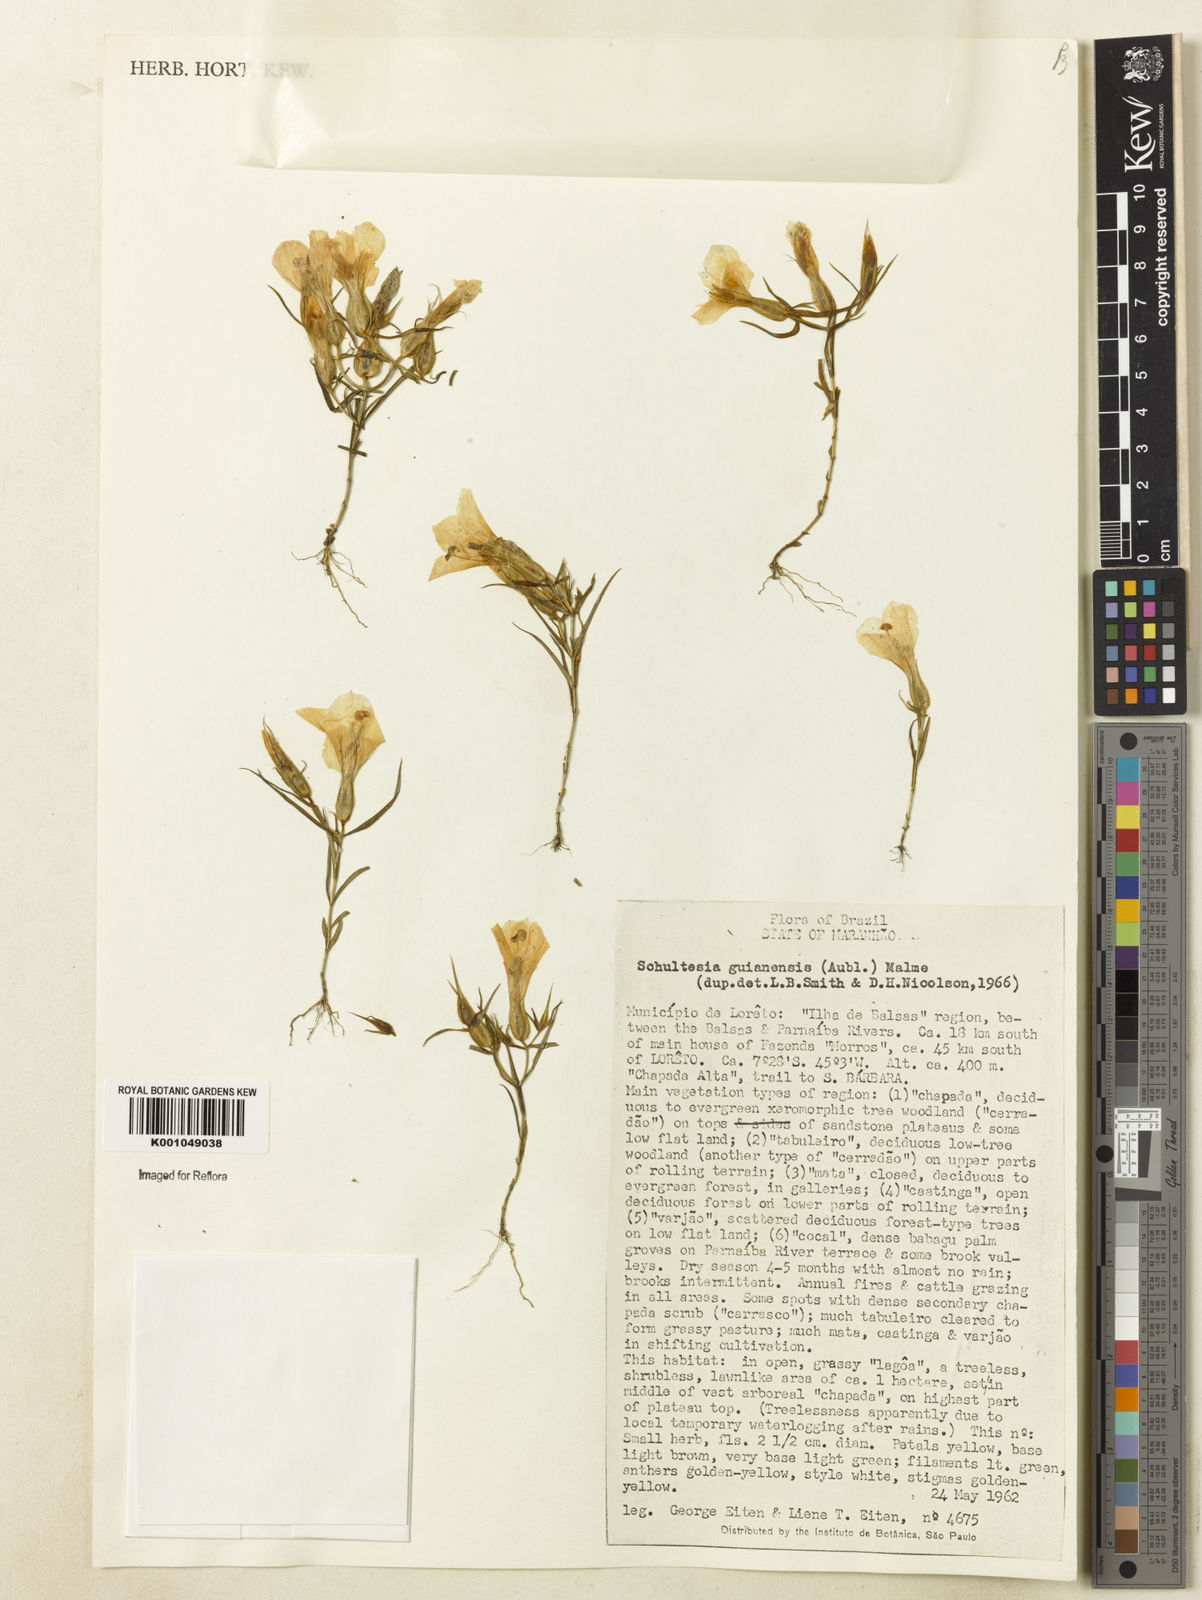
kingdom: Plantae
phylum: Tracheophyta
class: Magnoliopsida
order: Gentianales
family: Gentianaceae
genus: Schultesia
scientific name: Schultesia guianensis
